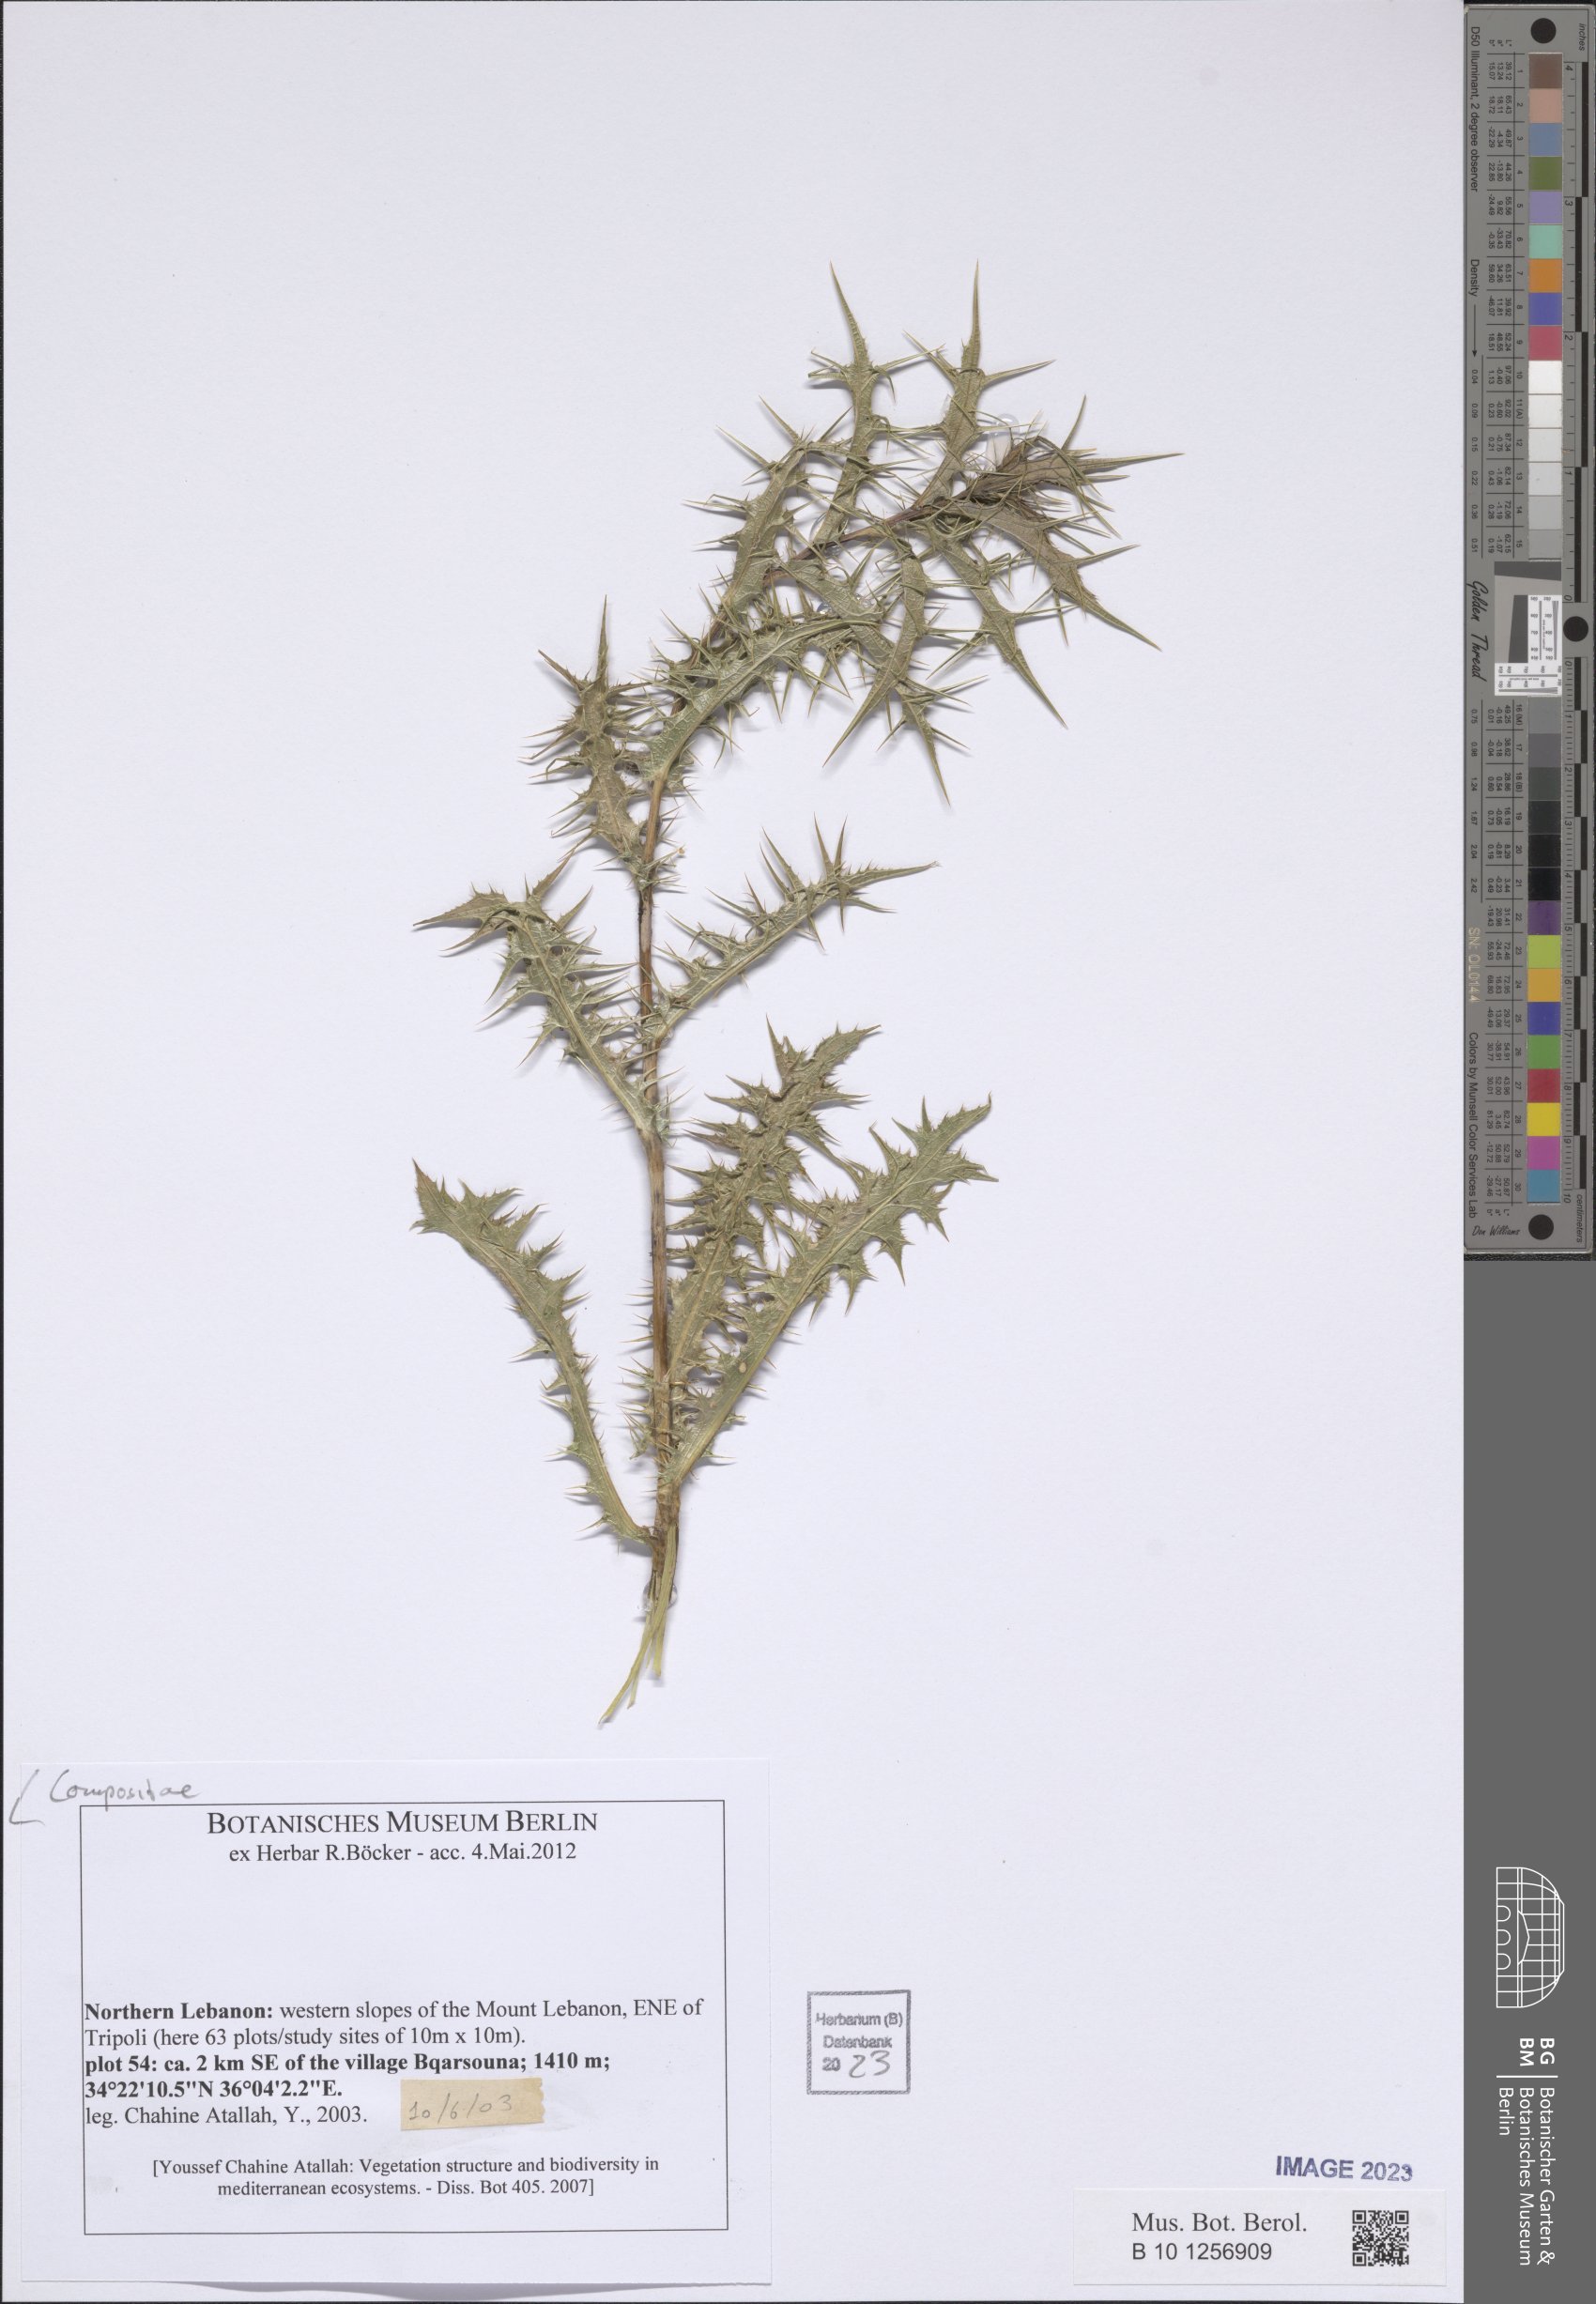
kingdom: Plantae
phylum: Tracheophyta
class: Magnoliopsida
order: Asterales
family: Asteraceae
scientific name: Asteraceae
